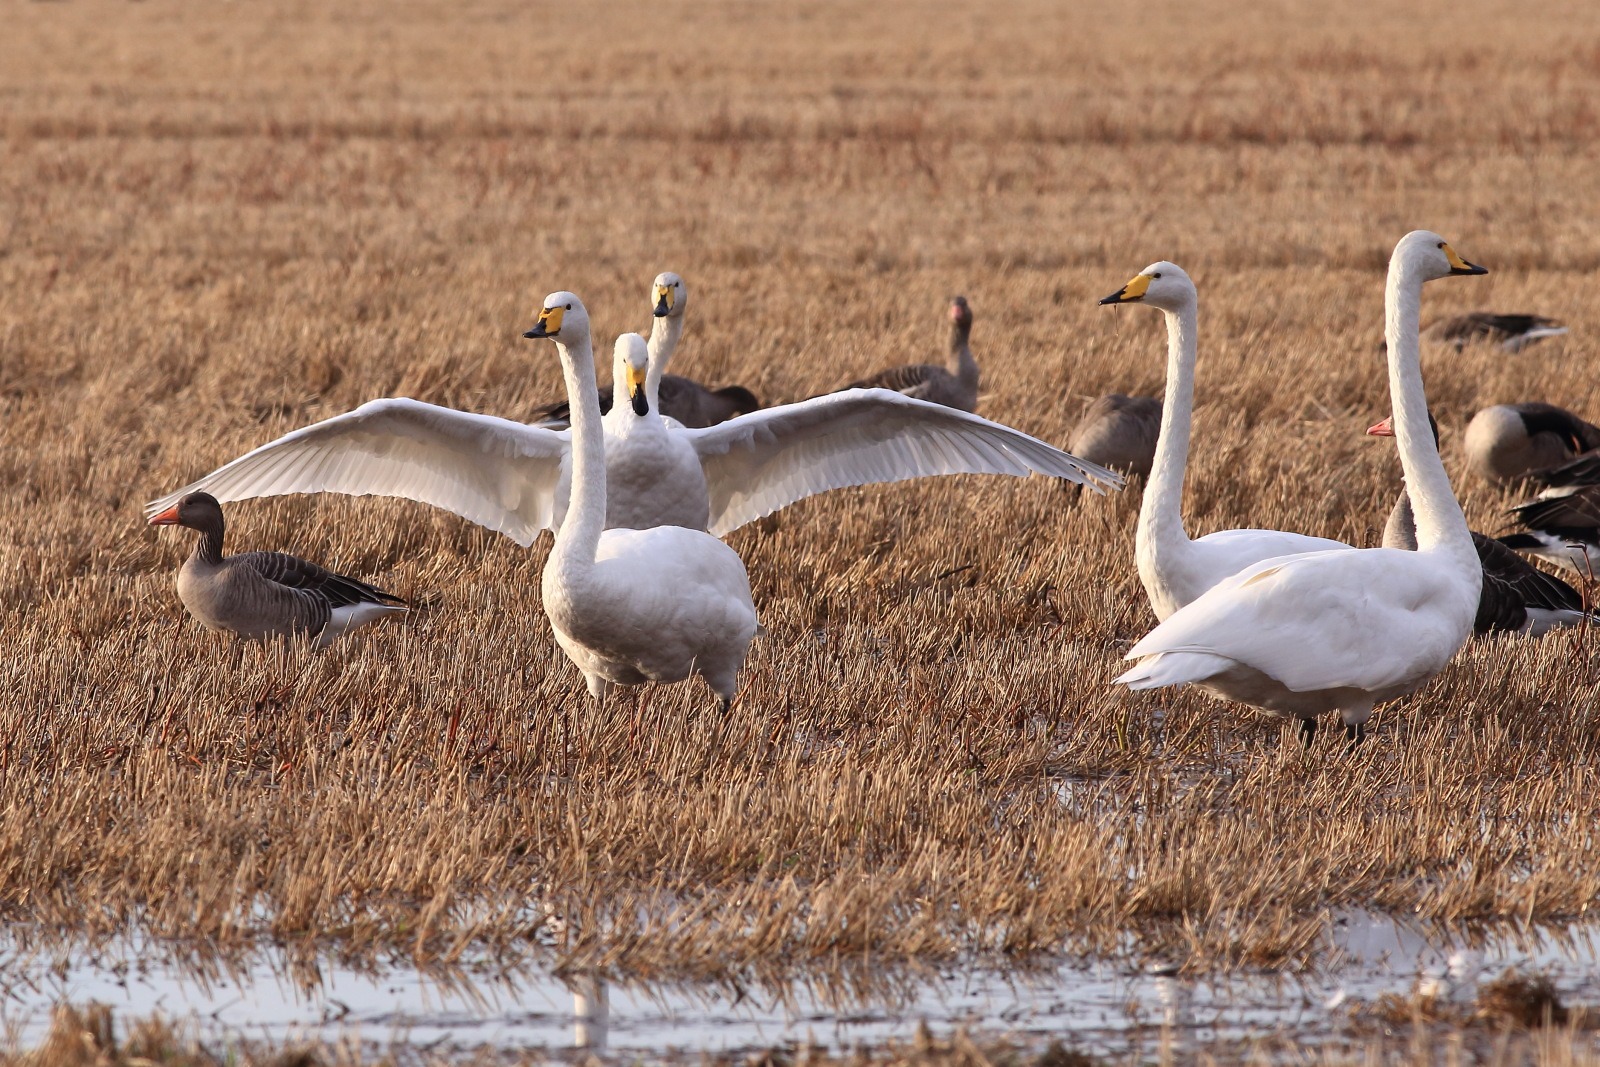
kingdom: Animalia
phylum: Chordata
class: Aves
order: Anseriformes
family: Anatidae
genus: Cygnus
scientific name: Cygnus cygnus
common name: Sangsvane
